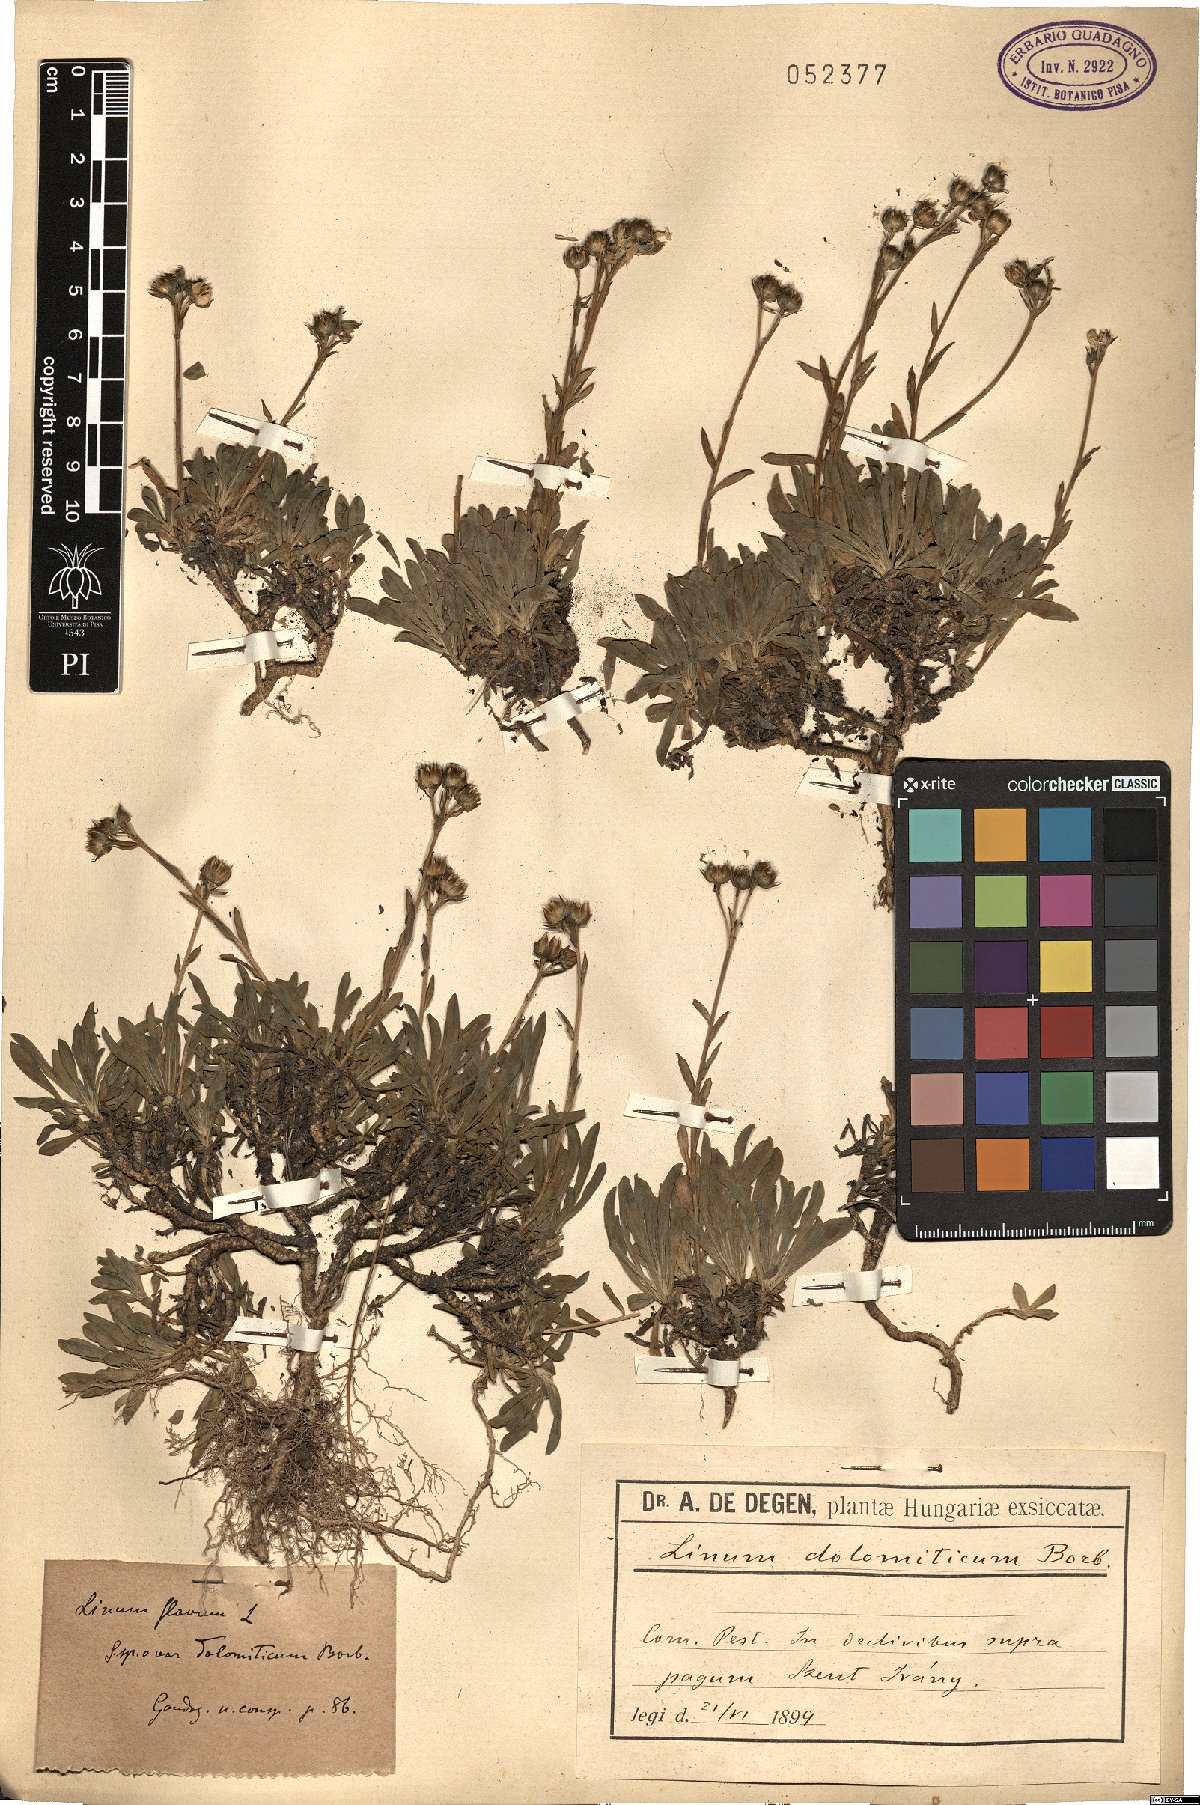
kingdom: Plantae
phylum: Tracheophyta
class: Magnoliopsida
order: Malpighiales
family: Linaceae
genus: Linum
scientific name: Linum flavum
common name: Yellow flax
